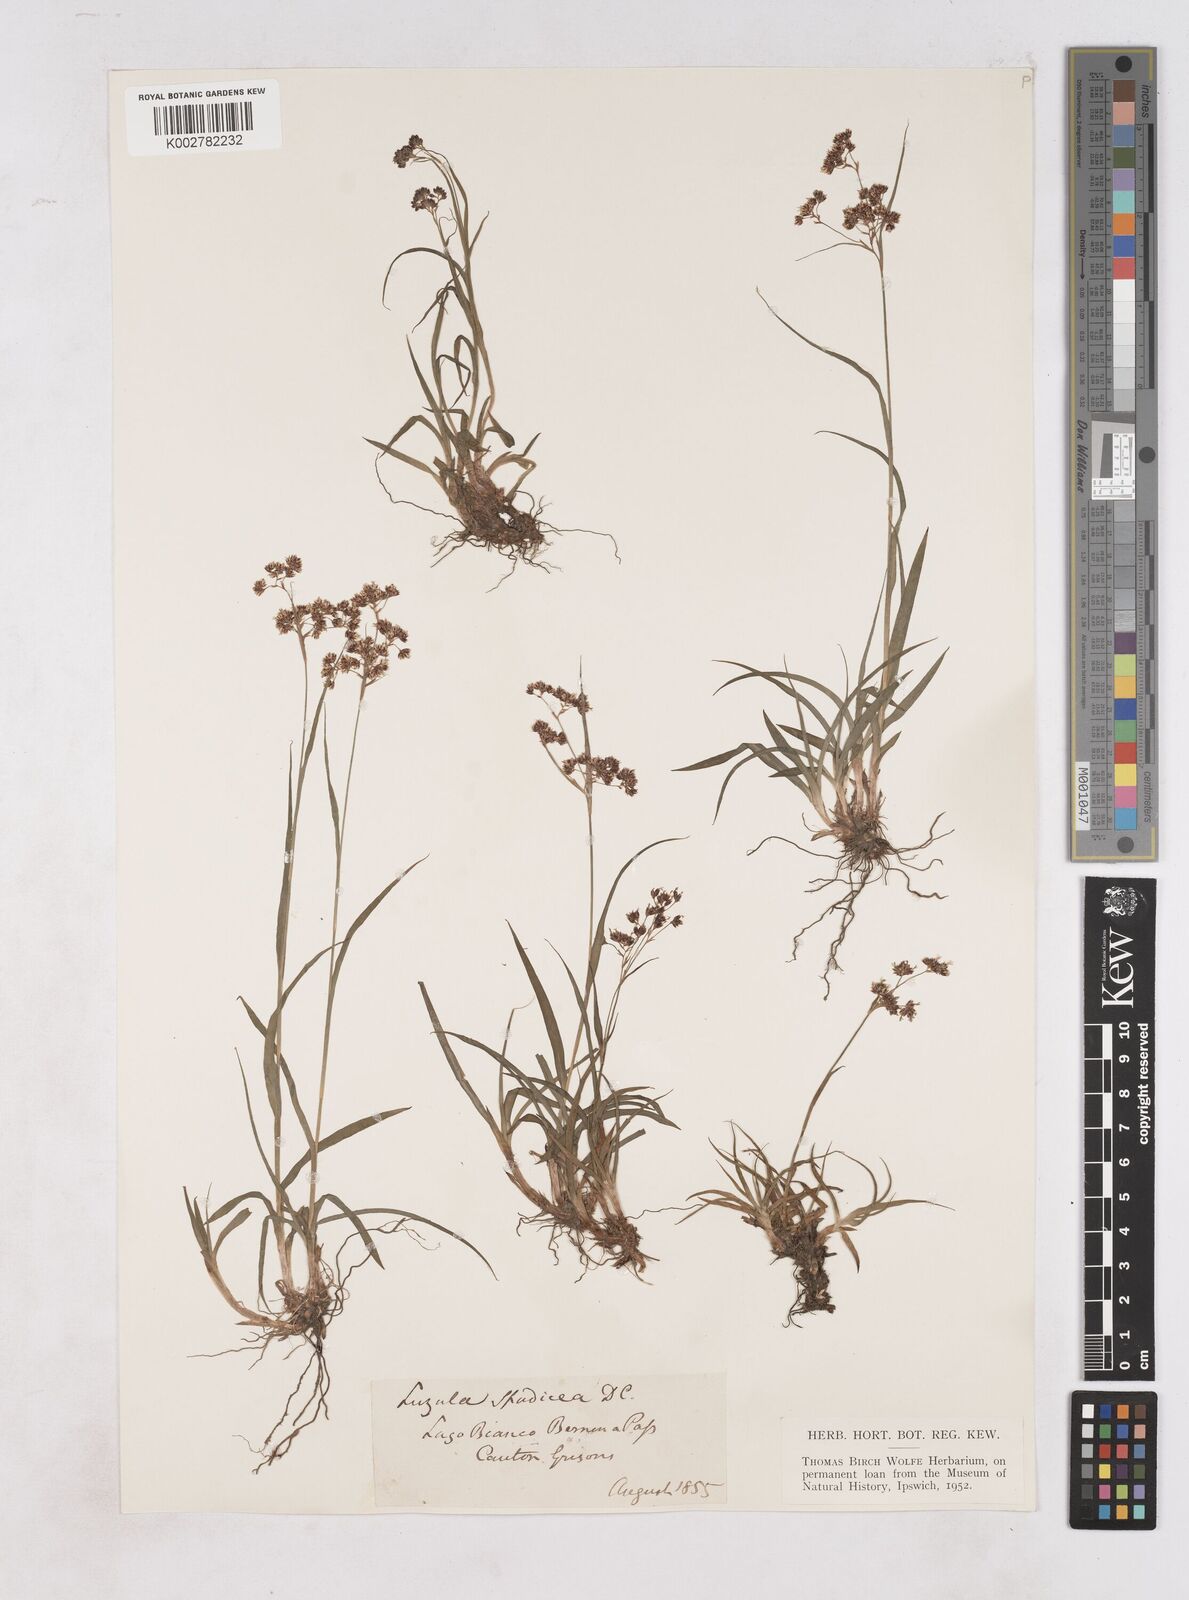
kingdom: Plantae
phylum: Tracheophyta
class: Liliopsida
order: Poales
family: Juncaceae
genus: Luzula
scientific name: Luzula alpinopilosa
